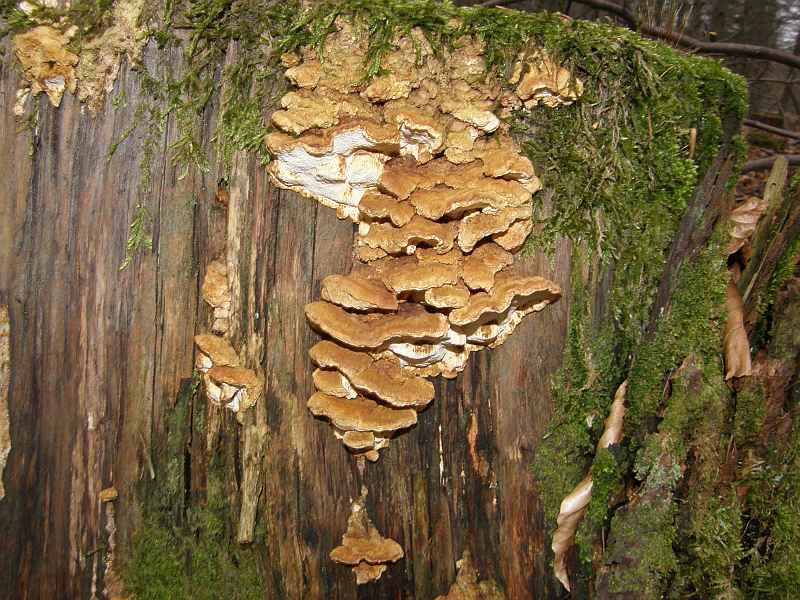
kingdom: Fungi
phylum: Basidiomycota
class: Agaricomycetes
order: Polyporales
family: Fomitopsidaceae
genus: Neoantrodia
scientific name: Neoantrodia serialis
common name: række-sejporesvamp
